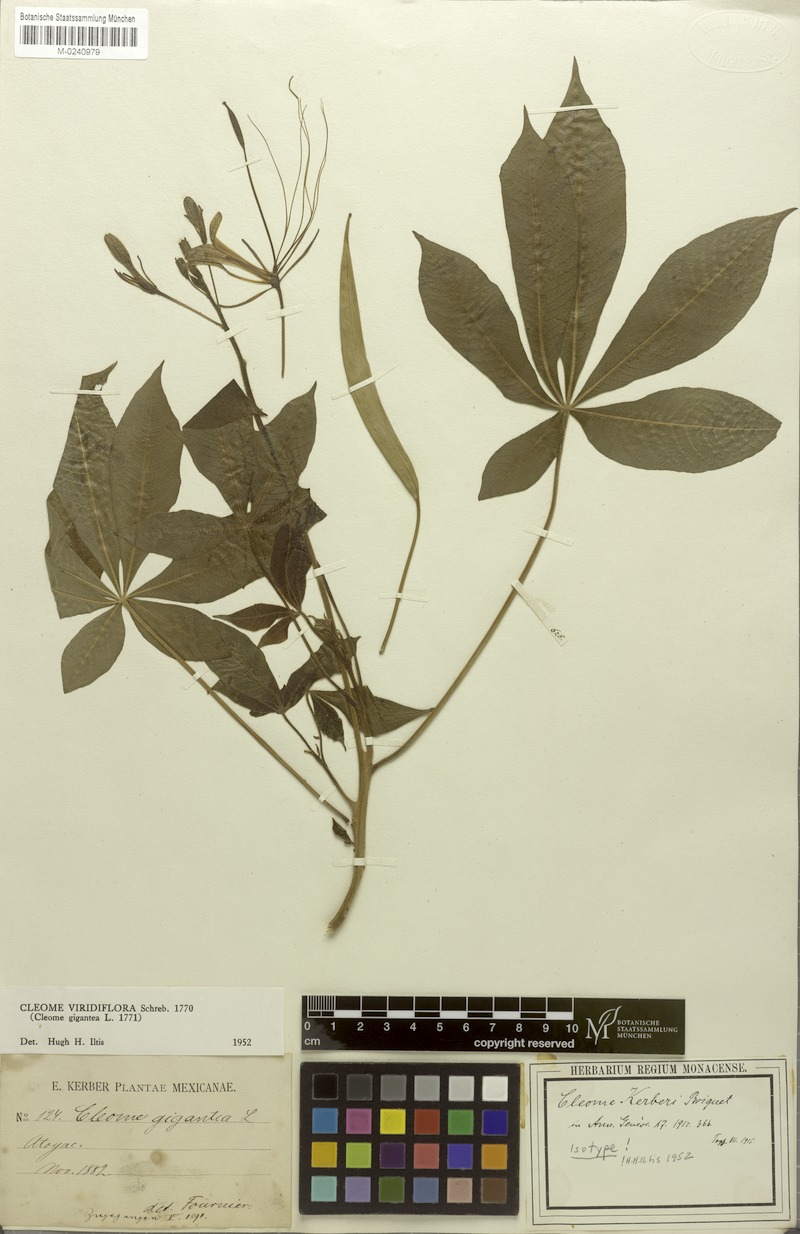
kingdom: Plantae
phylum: Tracheophyta
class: Magnoliopsida
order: Brassicales
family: Cleomaceae
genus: Melidiscus
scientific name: Melidiscus gigantea
